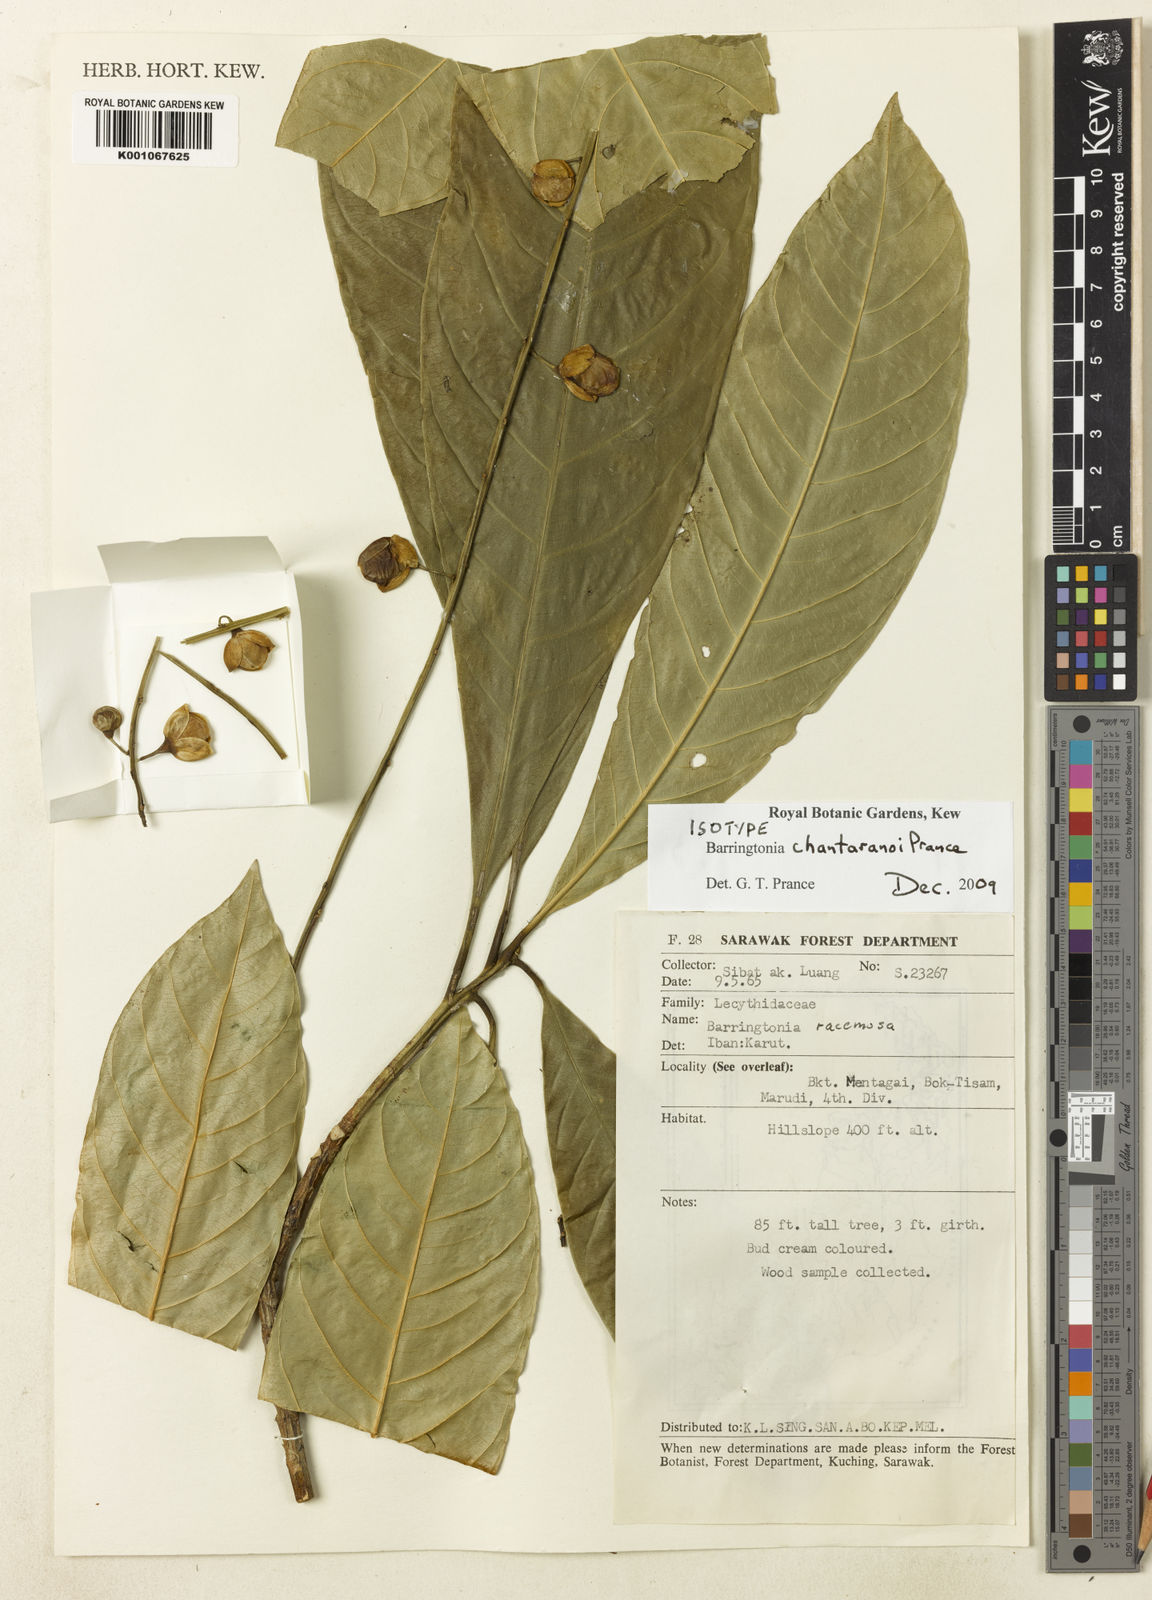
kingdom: Plantae
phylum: Tracheophyta
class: Magnoliopsida
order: Ericales
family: Lecythidaceae
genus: Barringtonia
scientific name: Barringtonia chantaranoi
